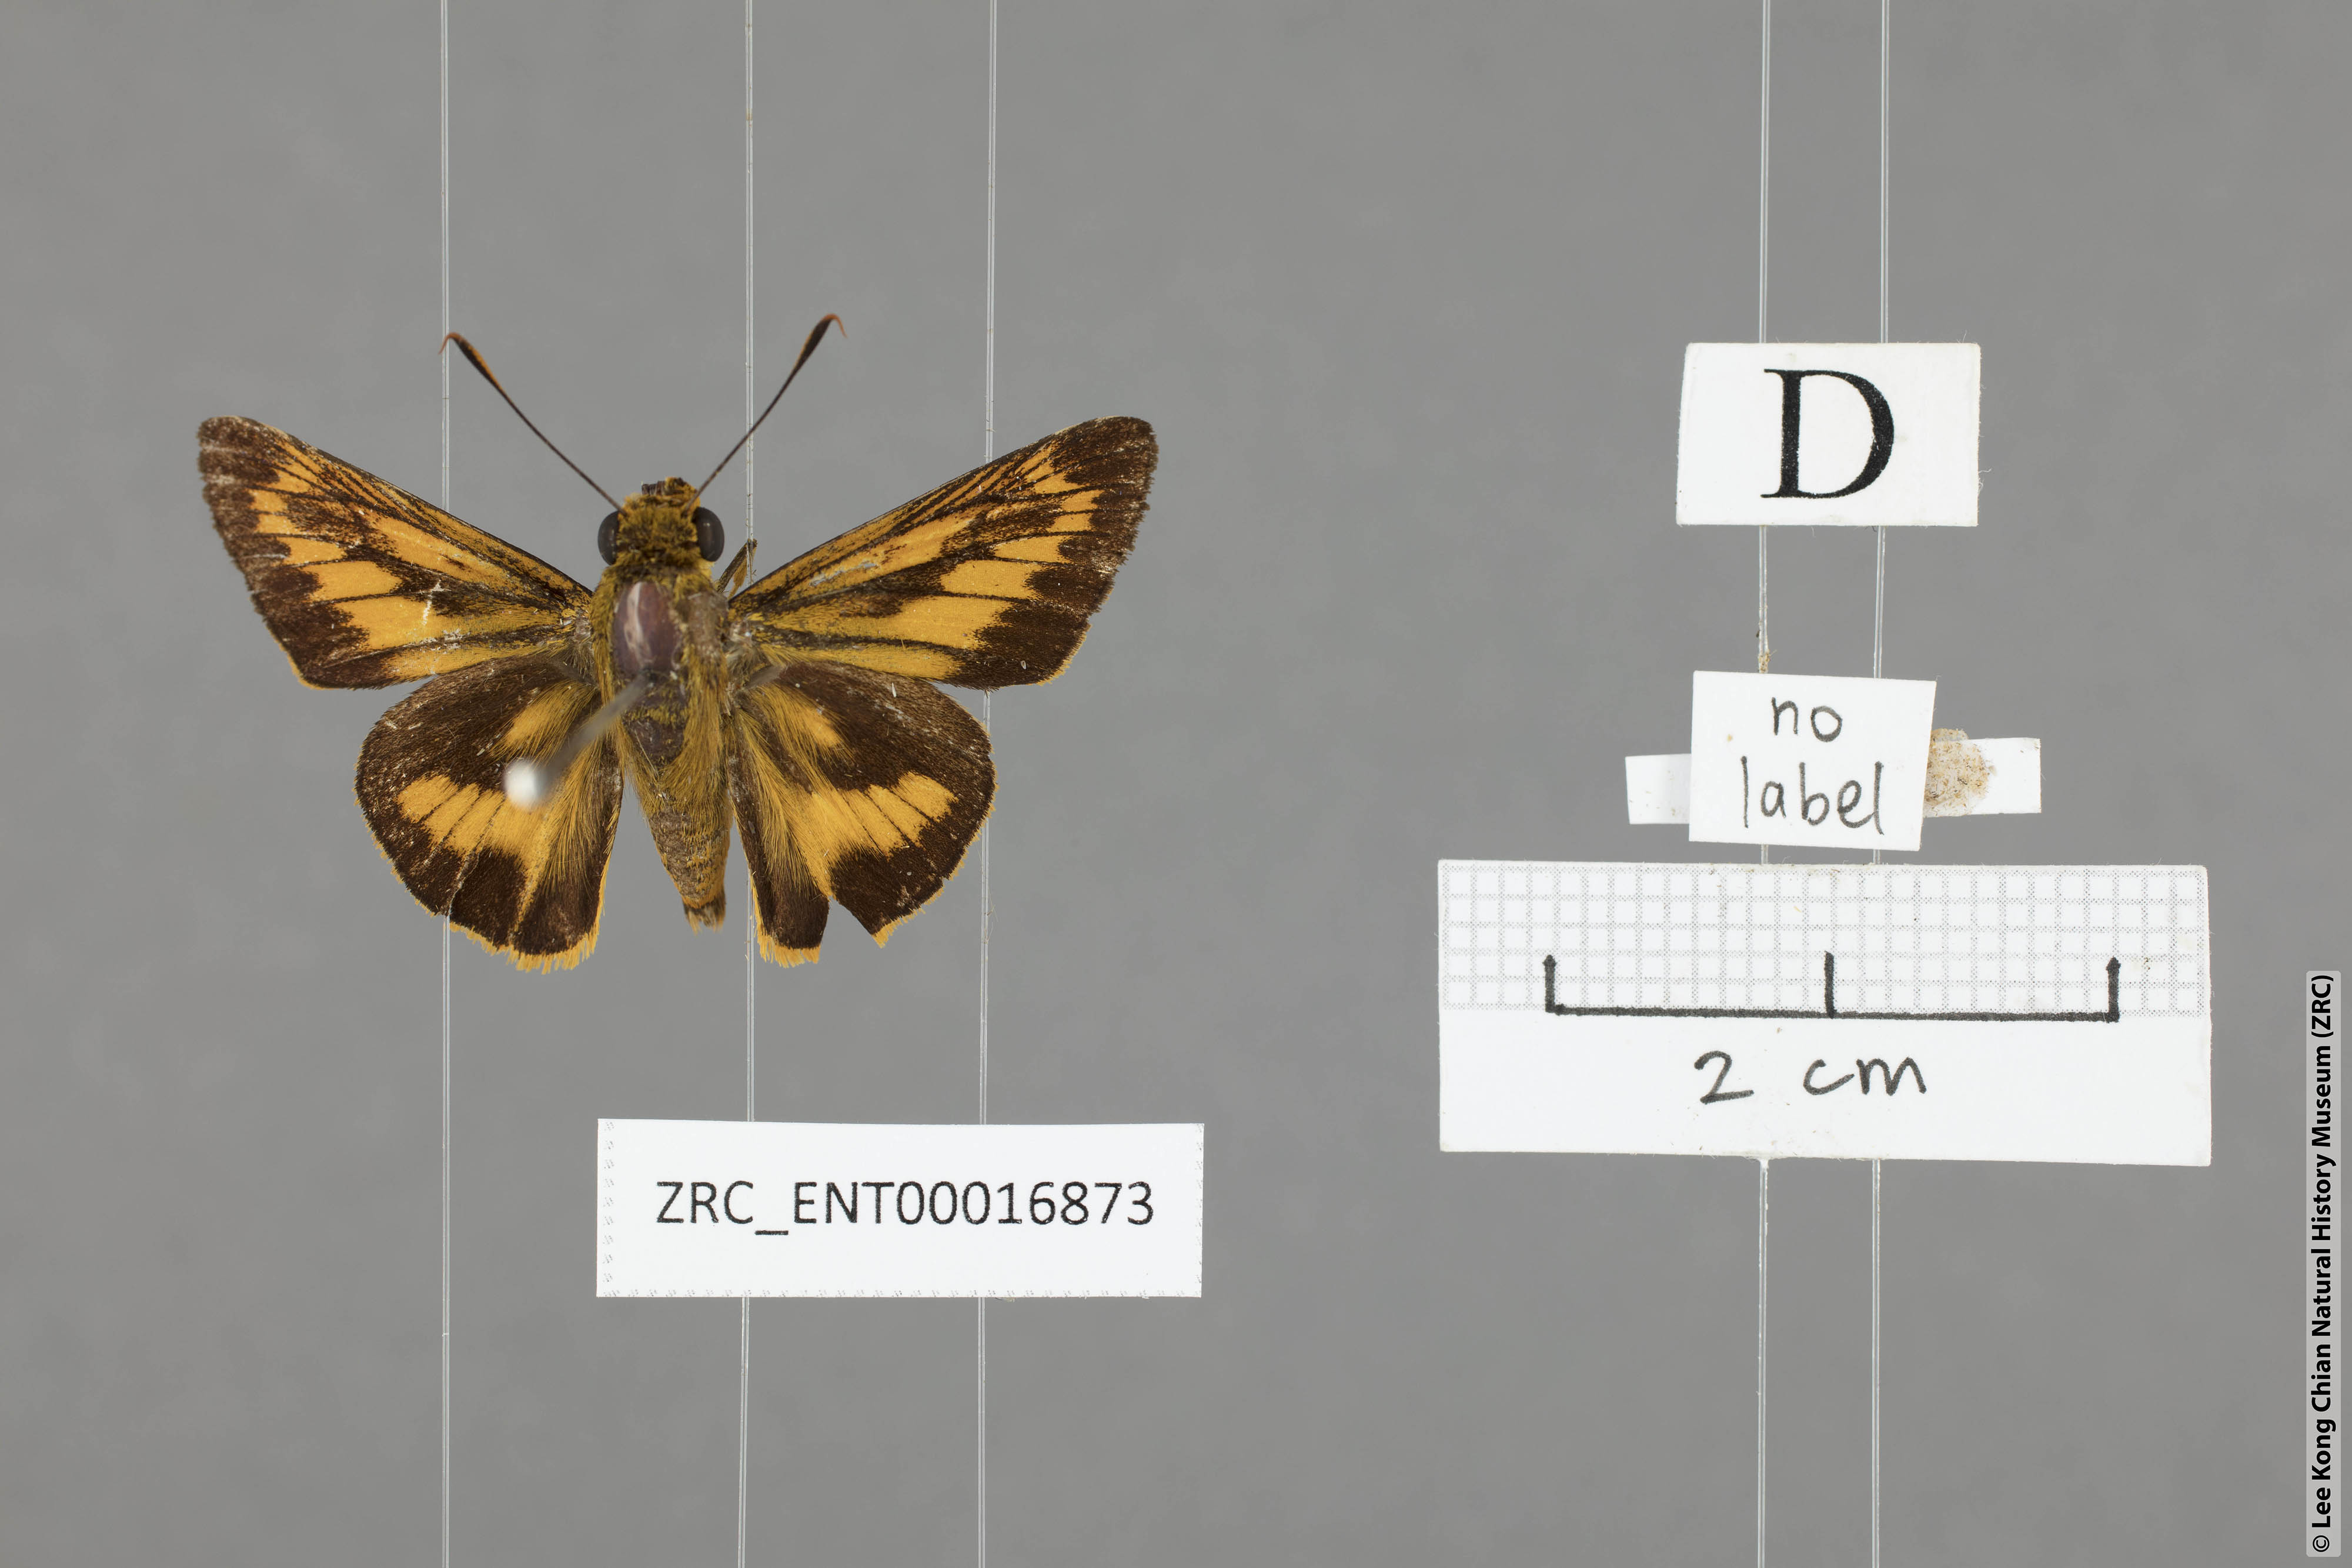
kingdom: Animalia
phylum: Arthropoda
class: Insecta
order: Lepidoptera
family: Hesperiidae
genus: Cephrenes
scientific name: Cephrenes
